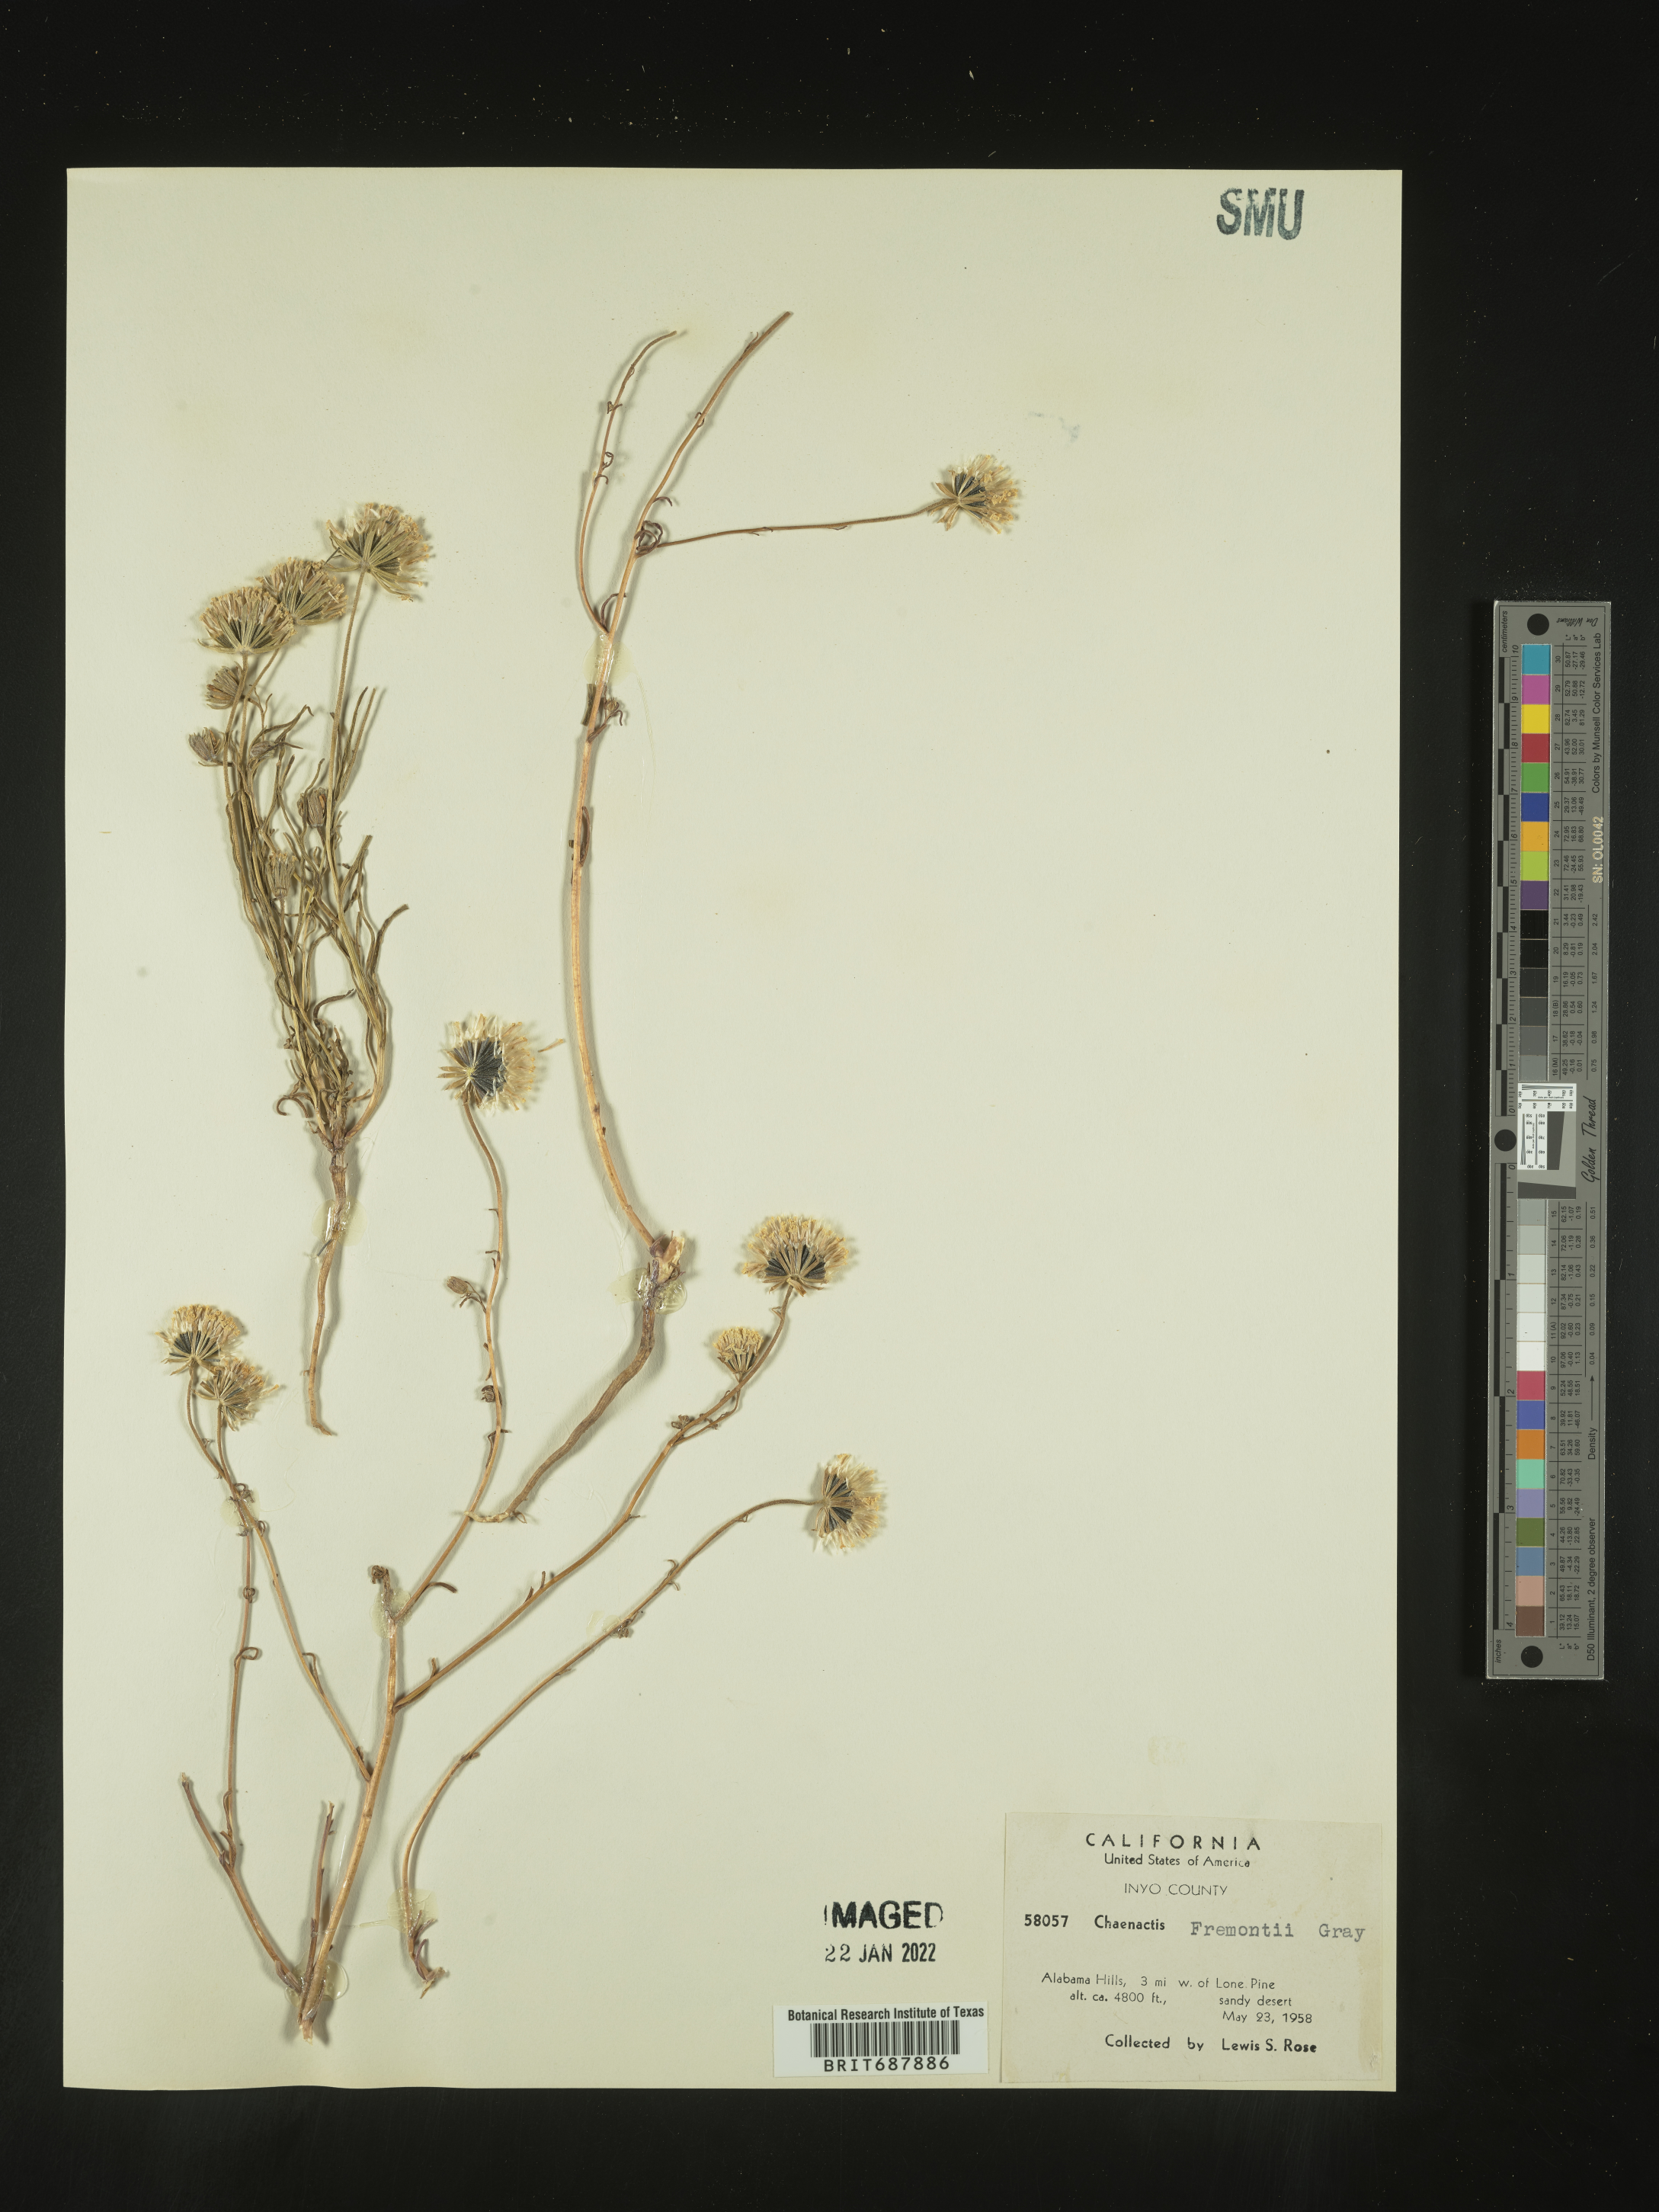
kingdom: Plantae
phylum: Tracheophyta
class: Magnoliopsida
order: Asterales
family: Asteraceae
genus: Chaenactis
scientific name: Chaenactis fremontii
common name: Fremont pincushion
